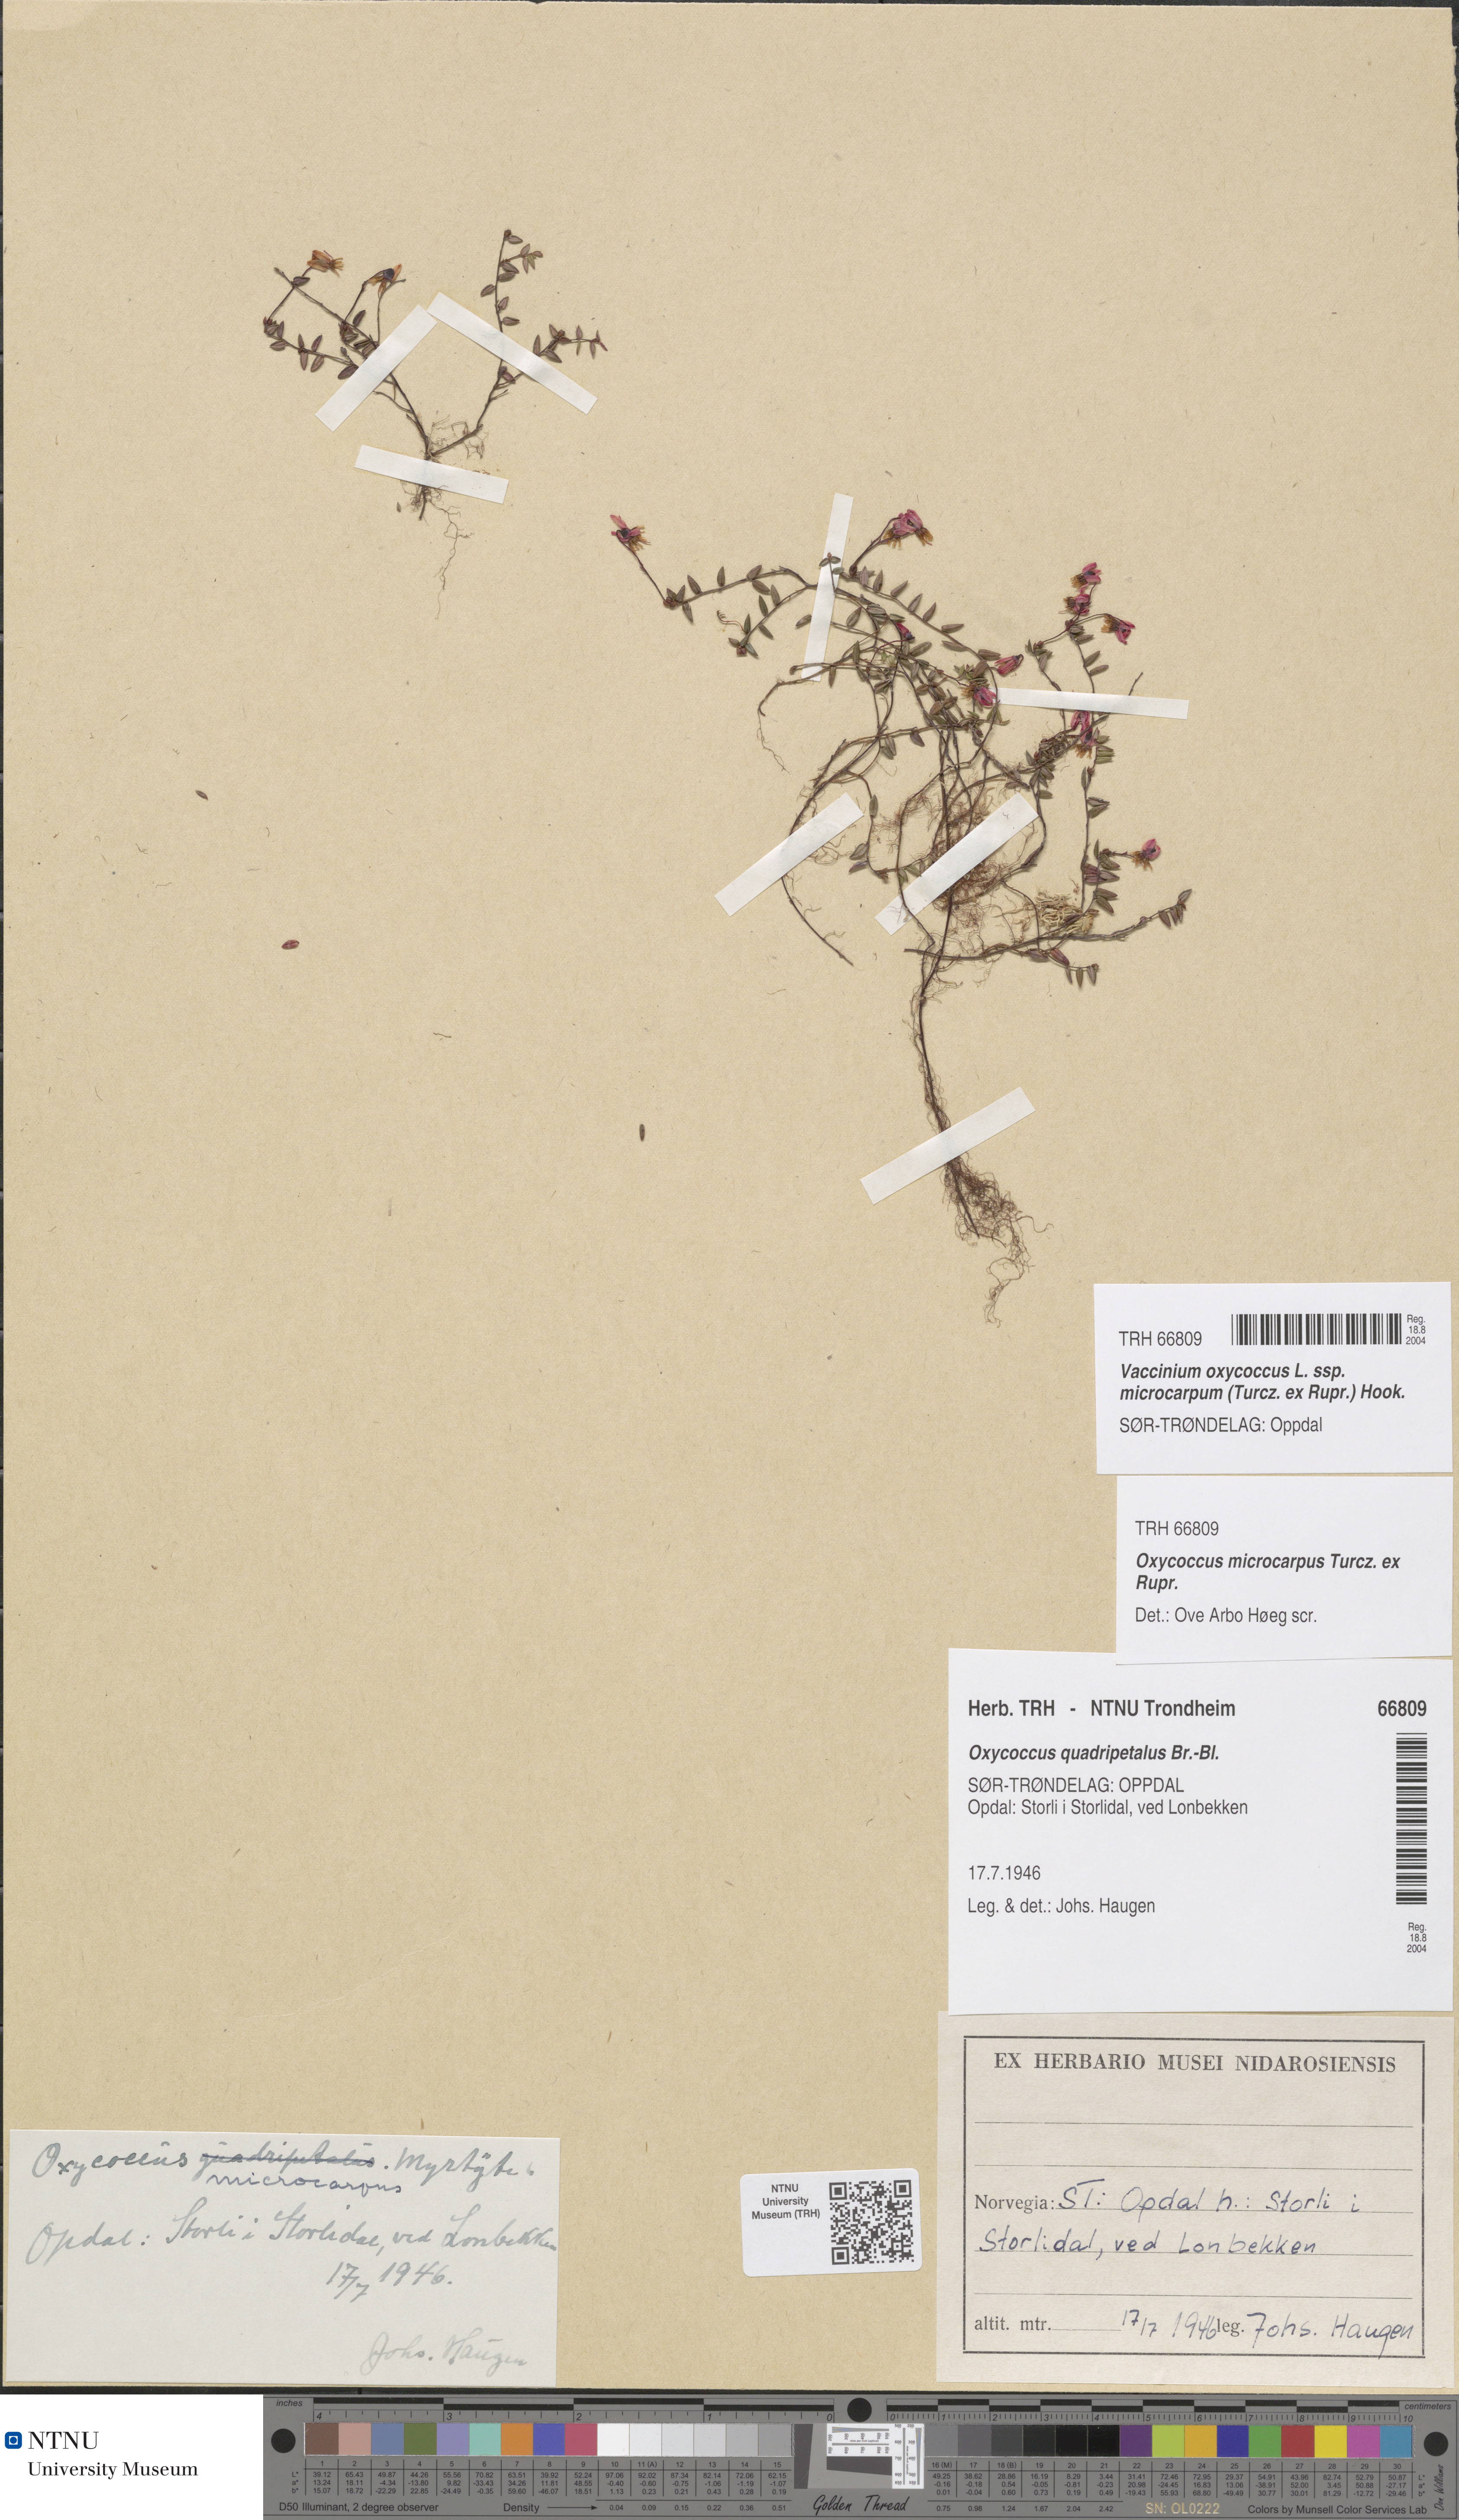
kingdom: Plantae
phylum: Tracheophyta
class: Magnoliopsida
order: Ericales
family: Ericaceae
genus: Vaccinium
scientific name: Vaccinium microcarpum
